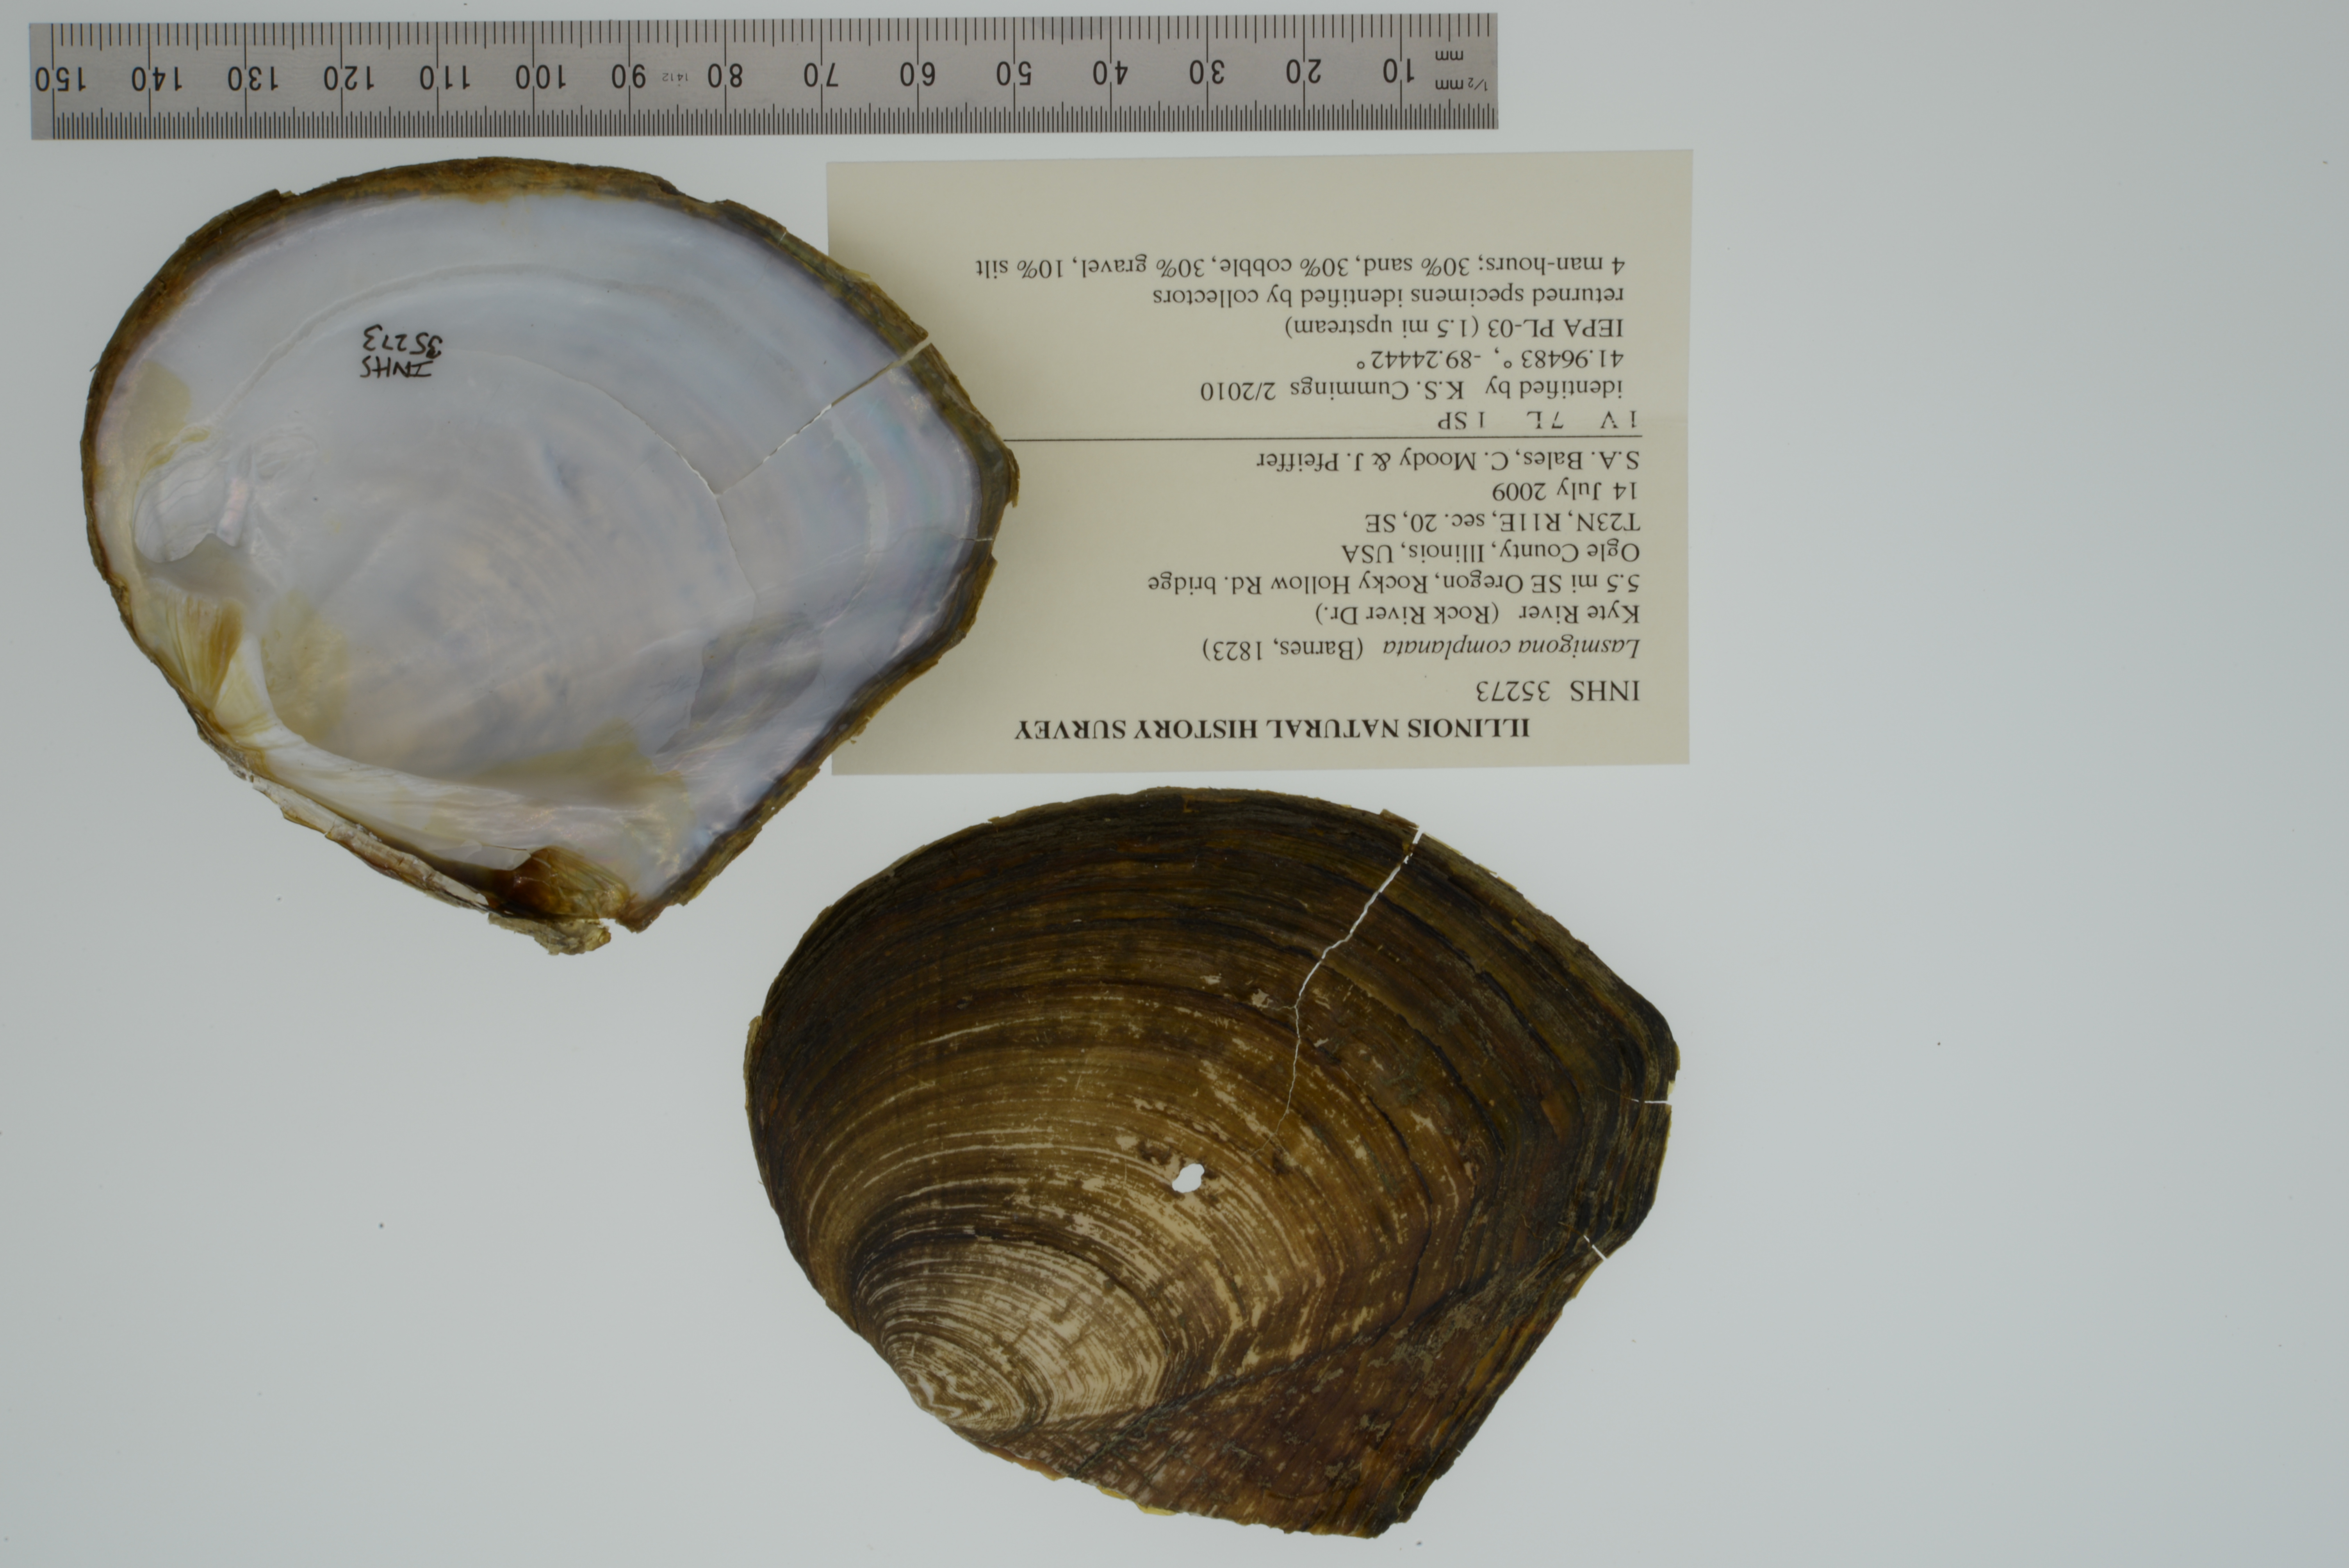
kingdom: Animalia
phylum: Mollusca
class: Bivalvia
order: Unionida
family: Unionidae
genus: Lasmigona
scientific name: Lasmigona complanata
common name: White heelsplitter
